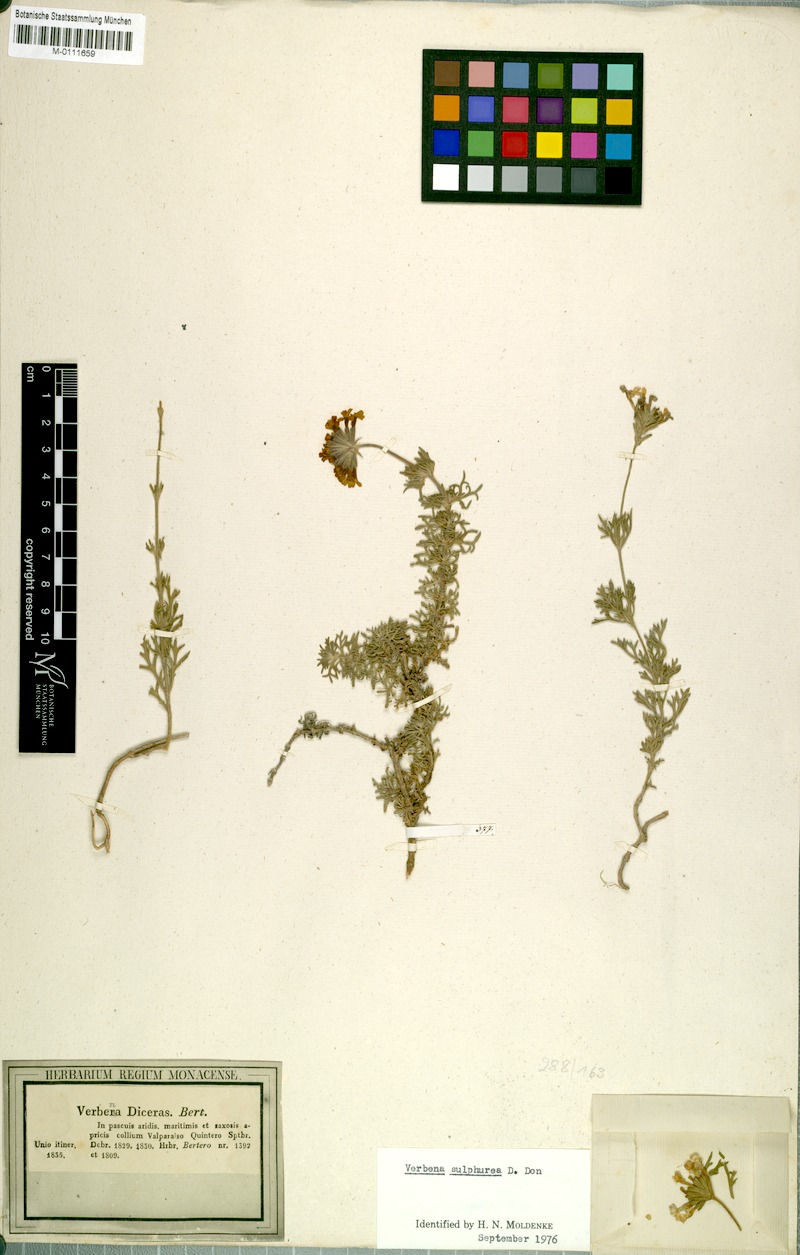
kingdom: Plantae
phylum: Tracheophyta
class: Magnoliopsida
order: Lamiales
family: Verbenaceae
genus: Verbena
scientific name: Verbena sulphurea
